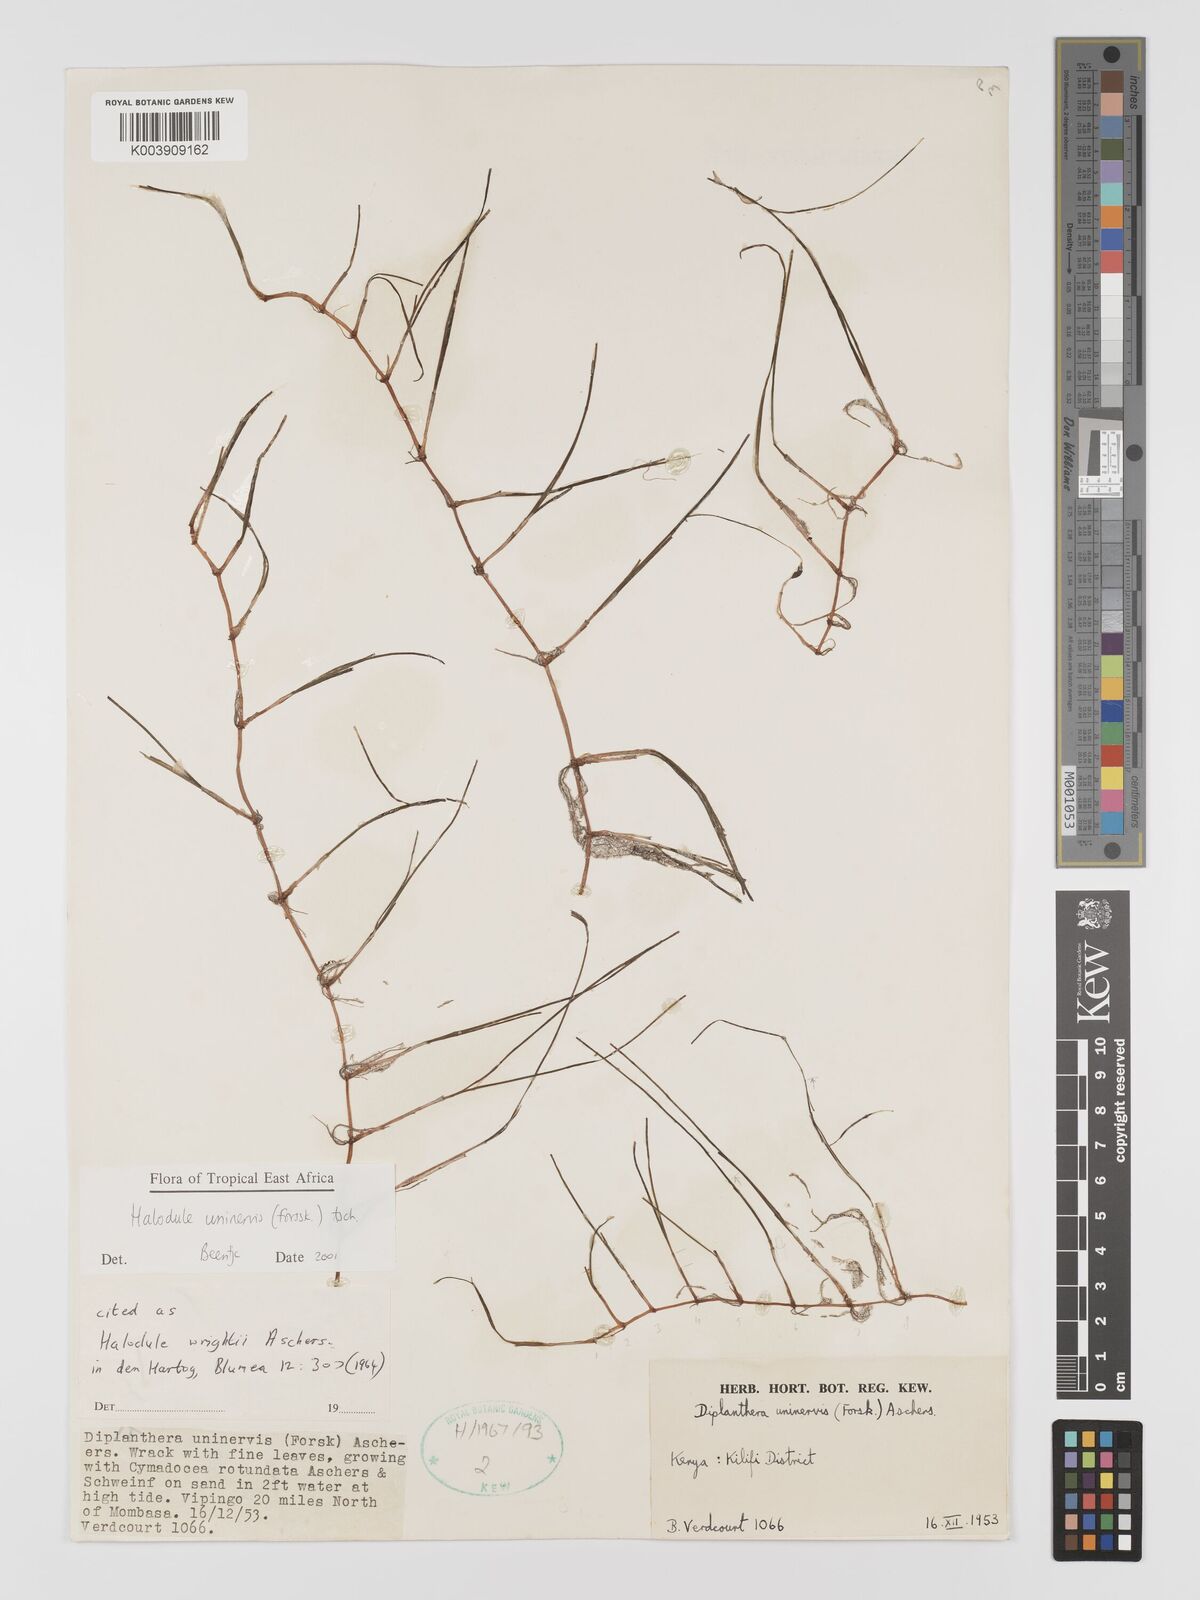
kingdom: Plantae
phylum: Tracheophyta
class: Liliopsida
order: Alismatales
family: Cymodoceaceae
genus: Halodule
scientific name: Halodule uninervis
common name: Narrowleaf seagrass
